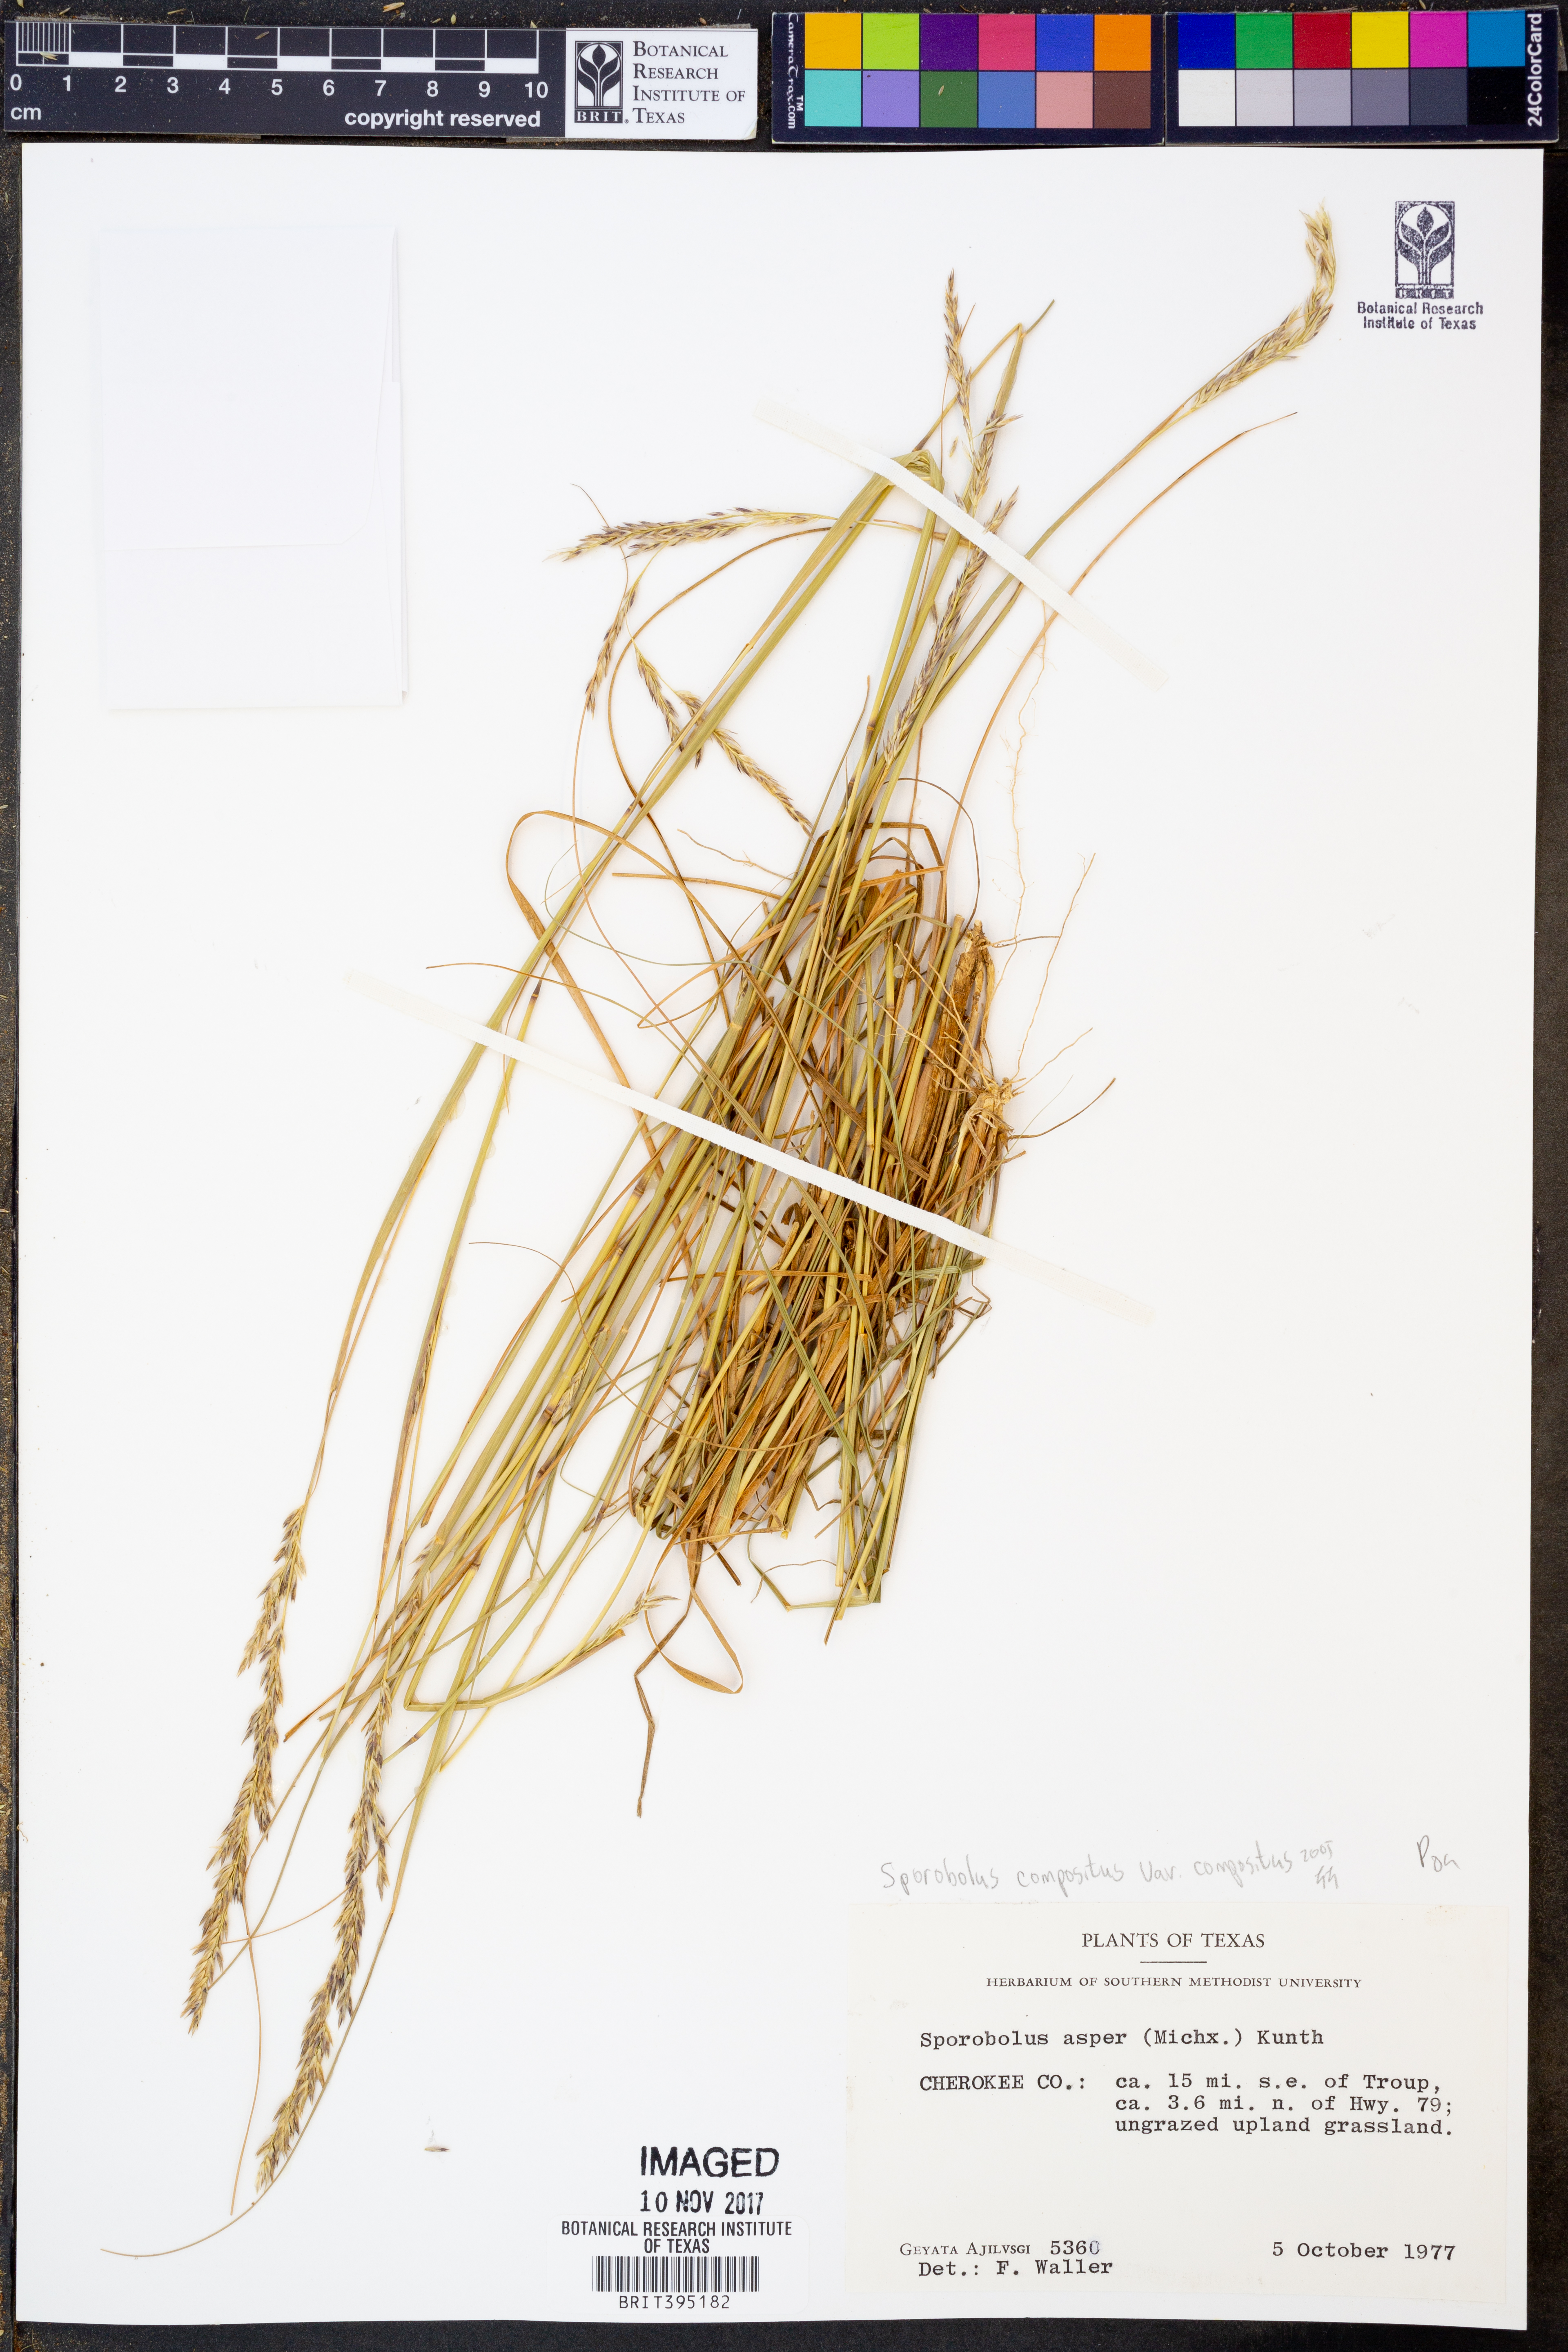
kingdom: Plantae
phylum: Tracheophyta
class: Liliopsida
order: Poales
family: Poaceae
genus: Sporobolus
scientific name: Sporobolus compositus
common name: Rough dropseed
